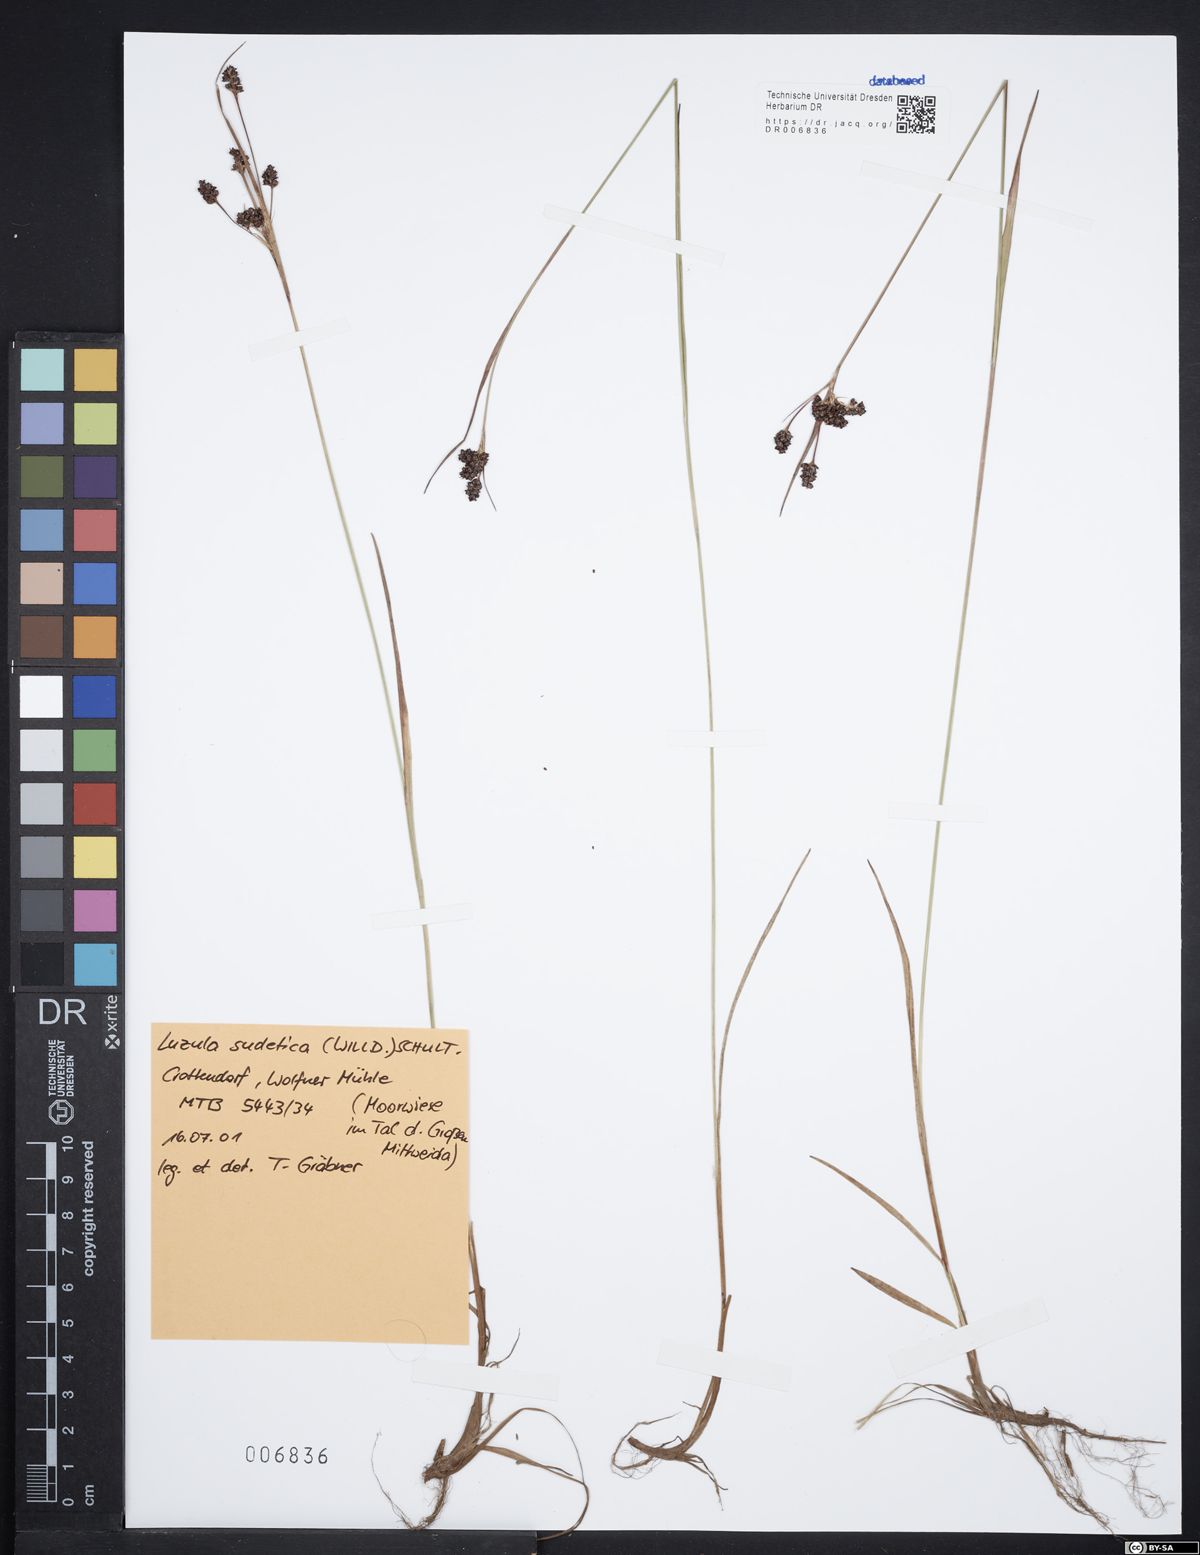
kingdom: Plantae
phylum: Tracheophyta
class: Liliopsida
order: Poales
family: Juncaceae
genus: Luzula
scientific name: Luzula sudetica
